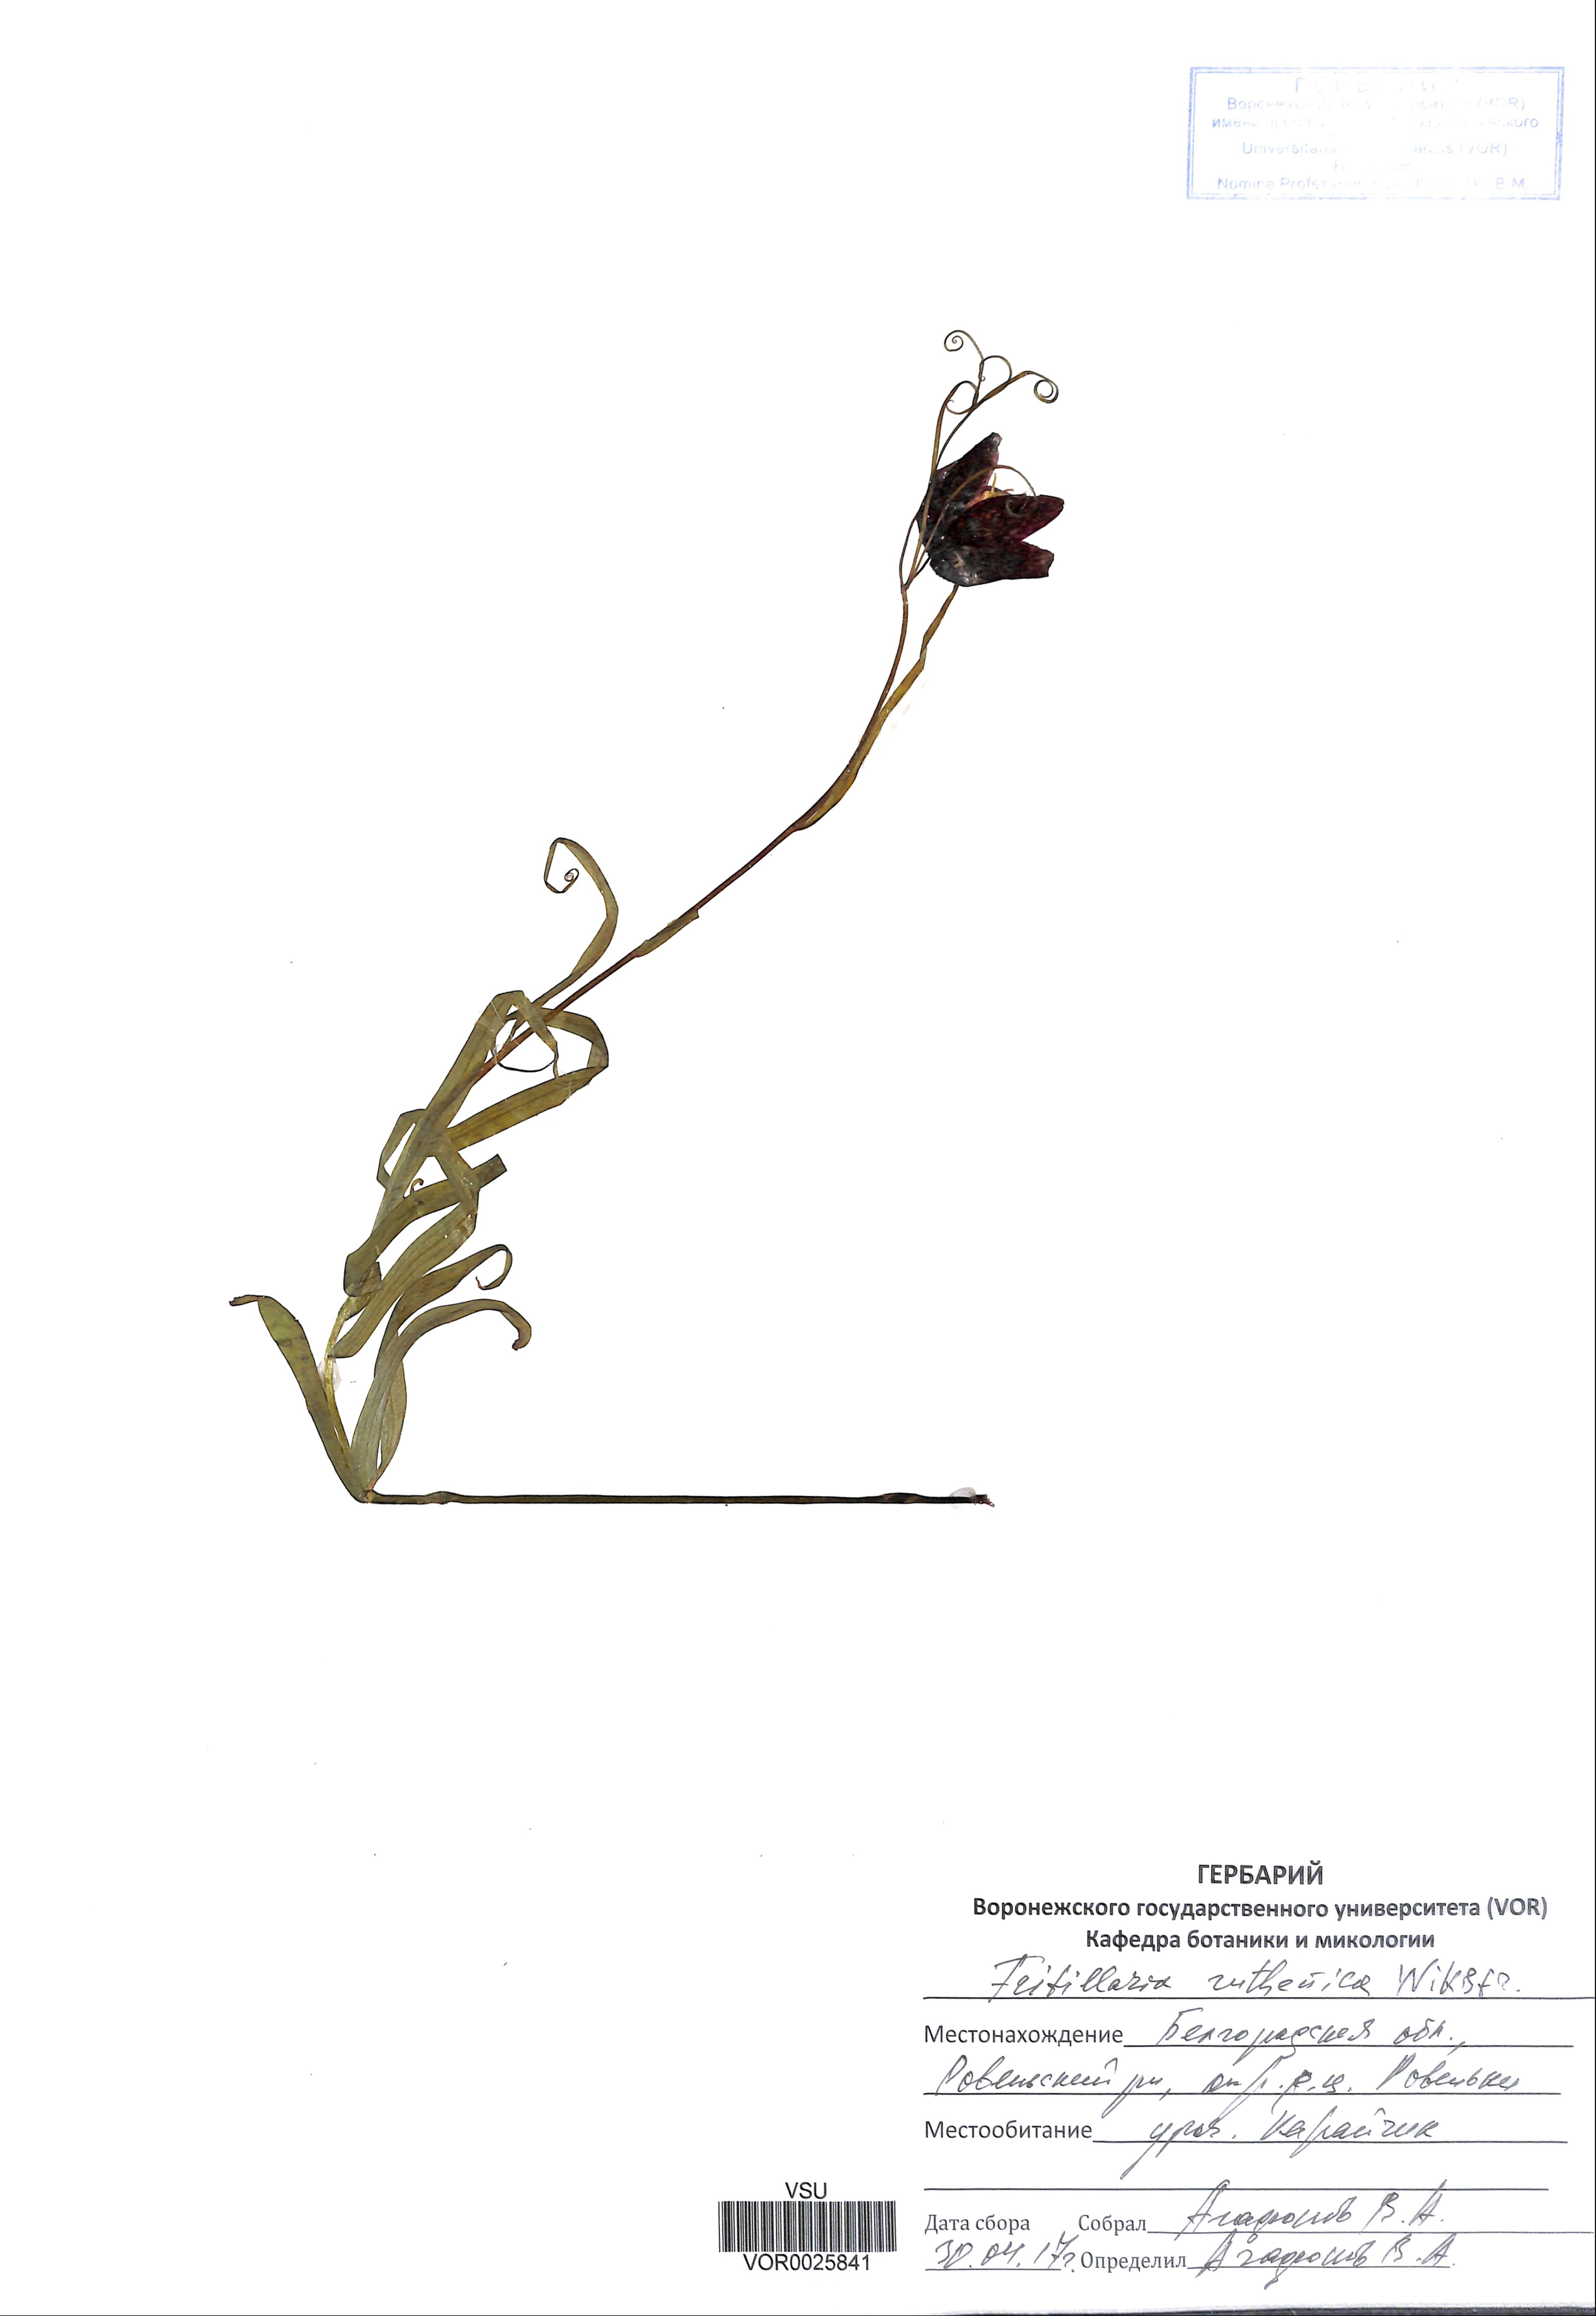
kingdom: Plantae
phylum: Tracheophyta
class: Liliopsida
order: Liliales
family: Liliaceae
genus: Fritillaria
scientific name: Fritillaria ruthenica
